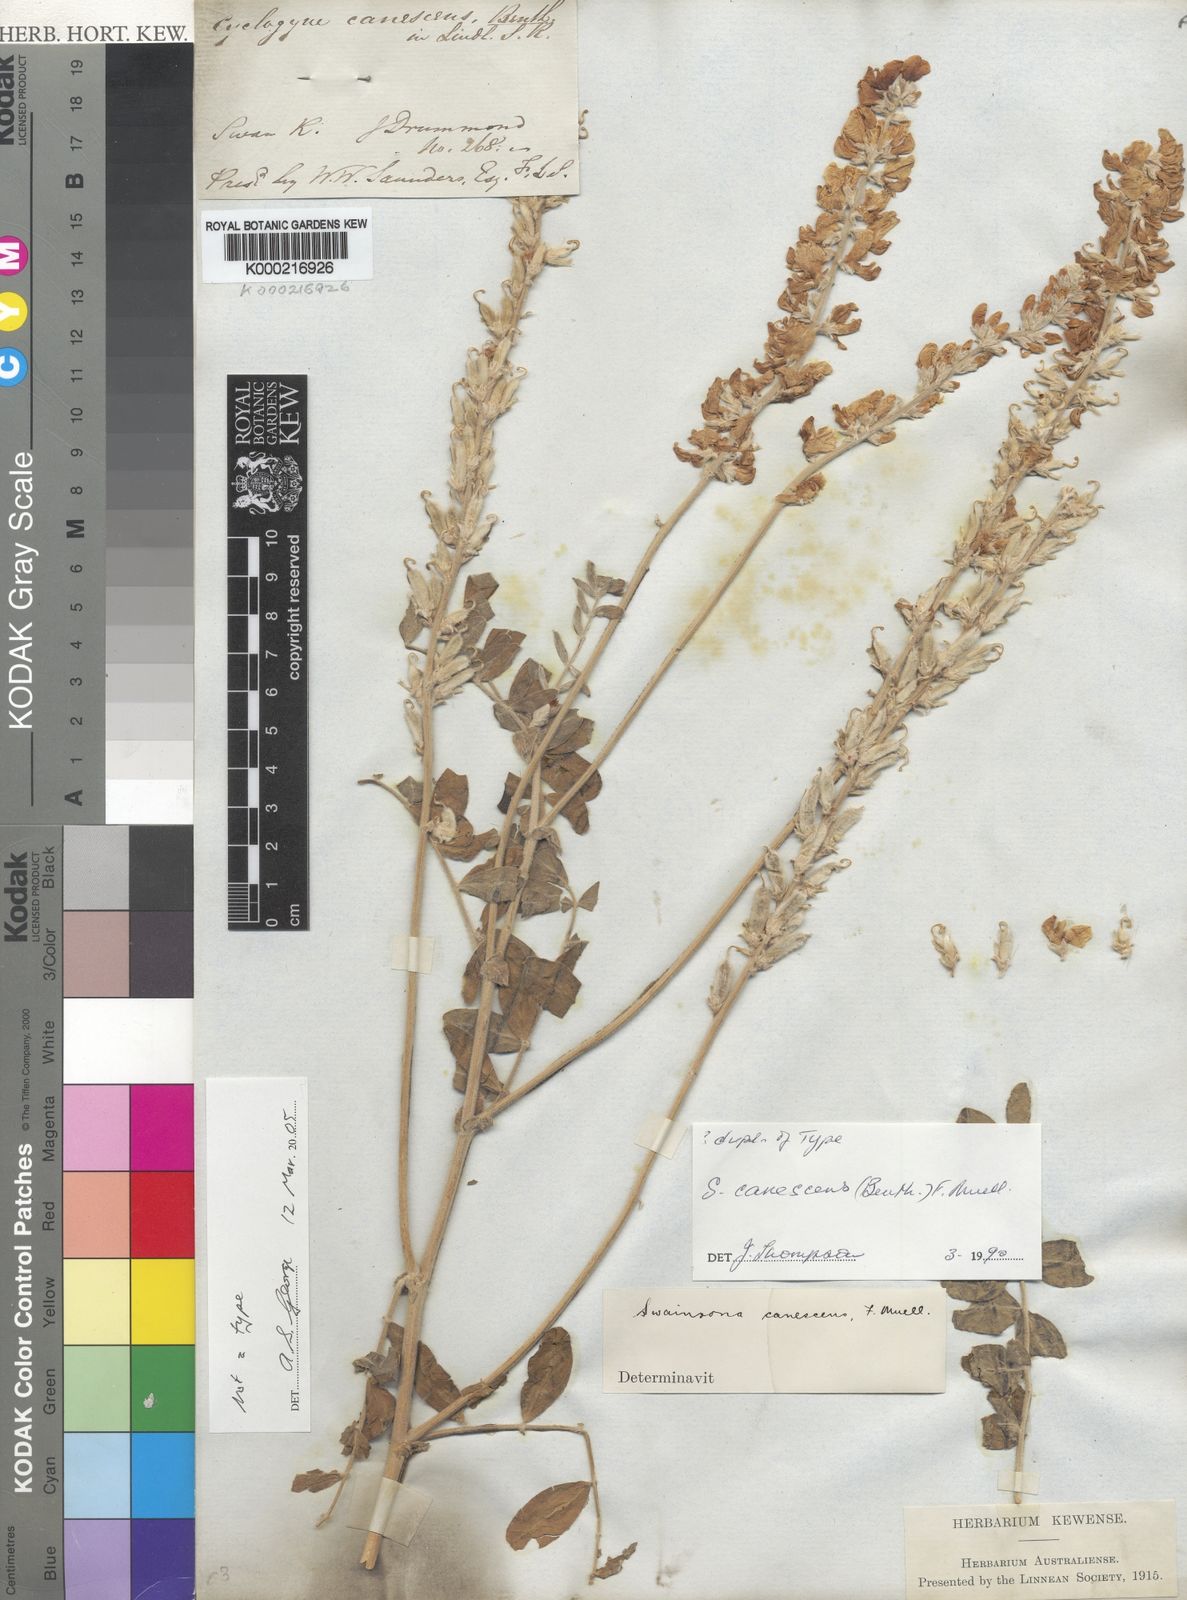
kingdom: Plantae
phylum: Tracheophyta
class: Magnoliopsida
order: Fabales
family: Fabaceae
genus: Swainsona
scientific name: Swainsona canescens
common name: Grey swainsona
